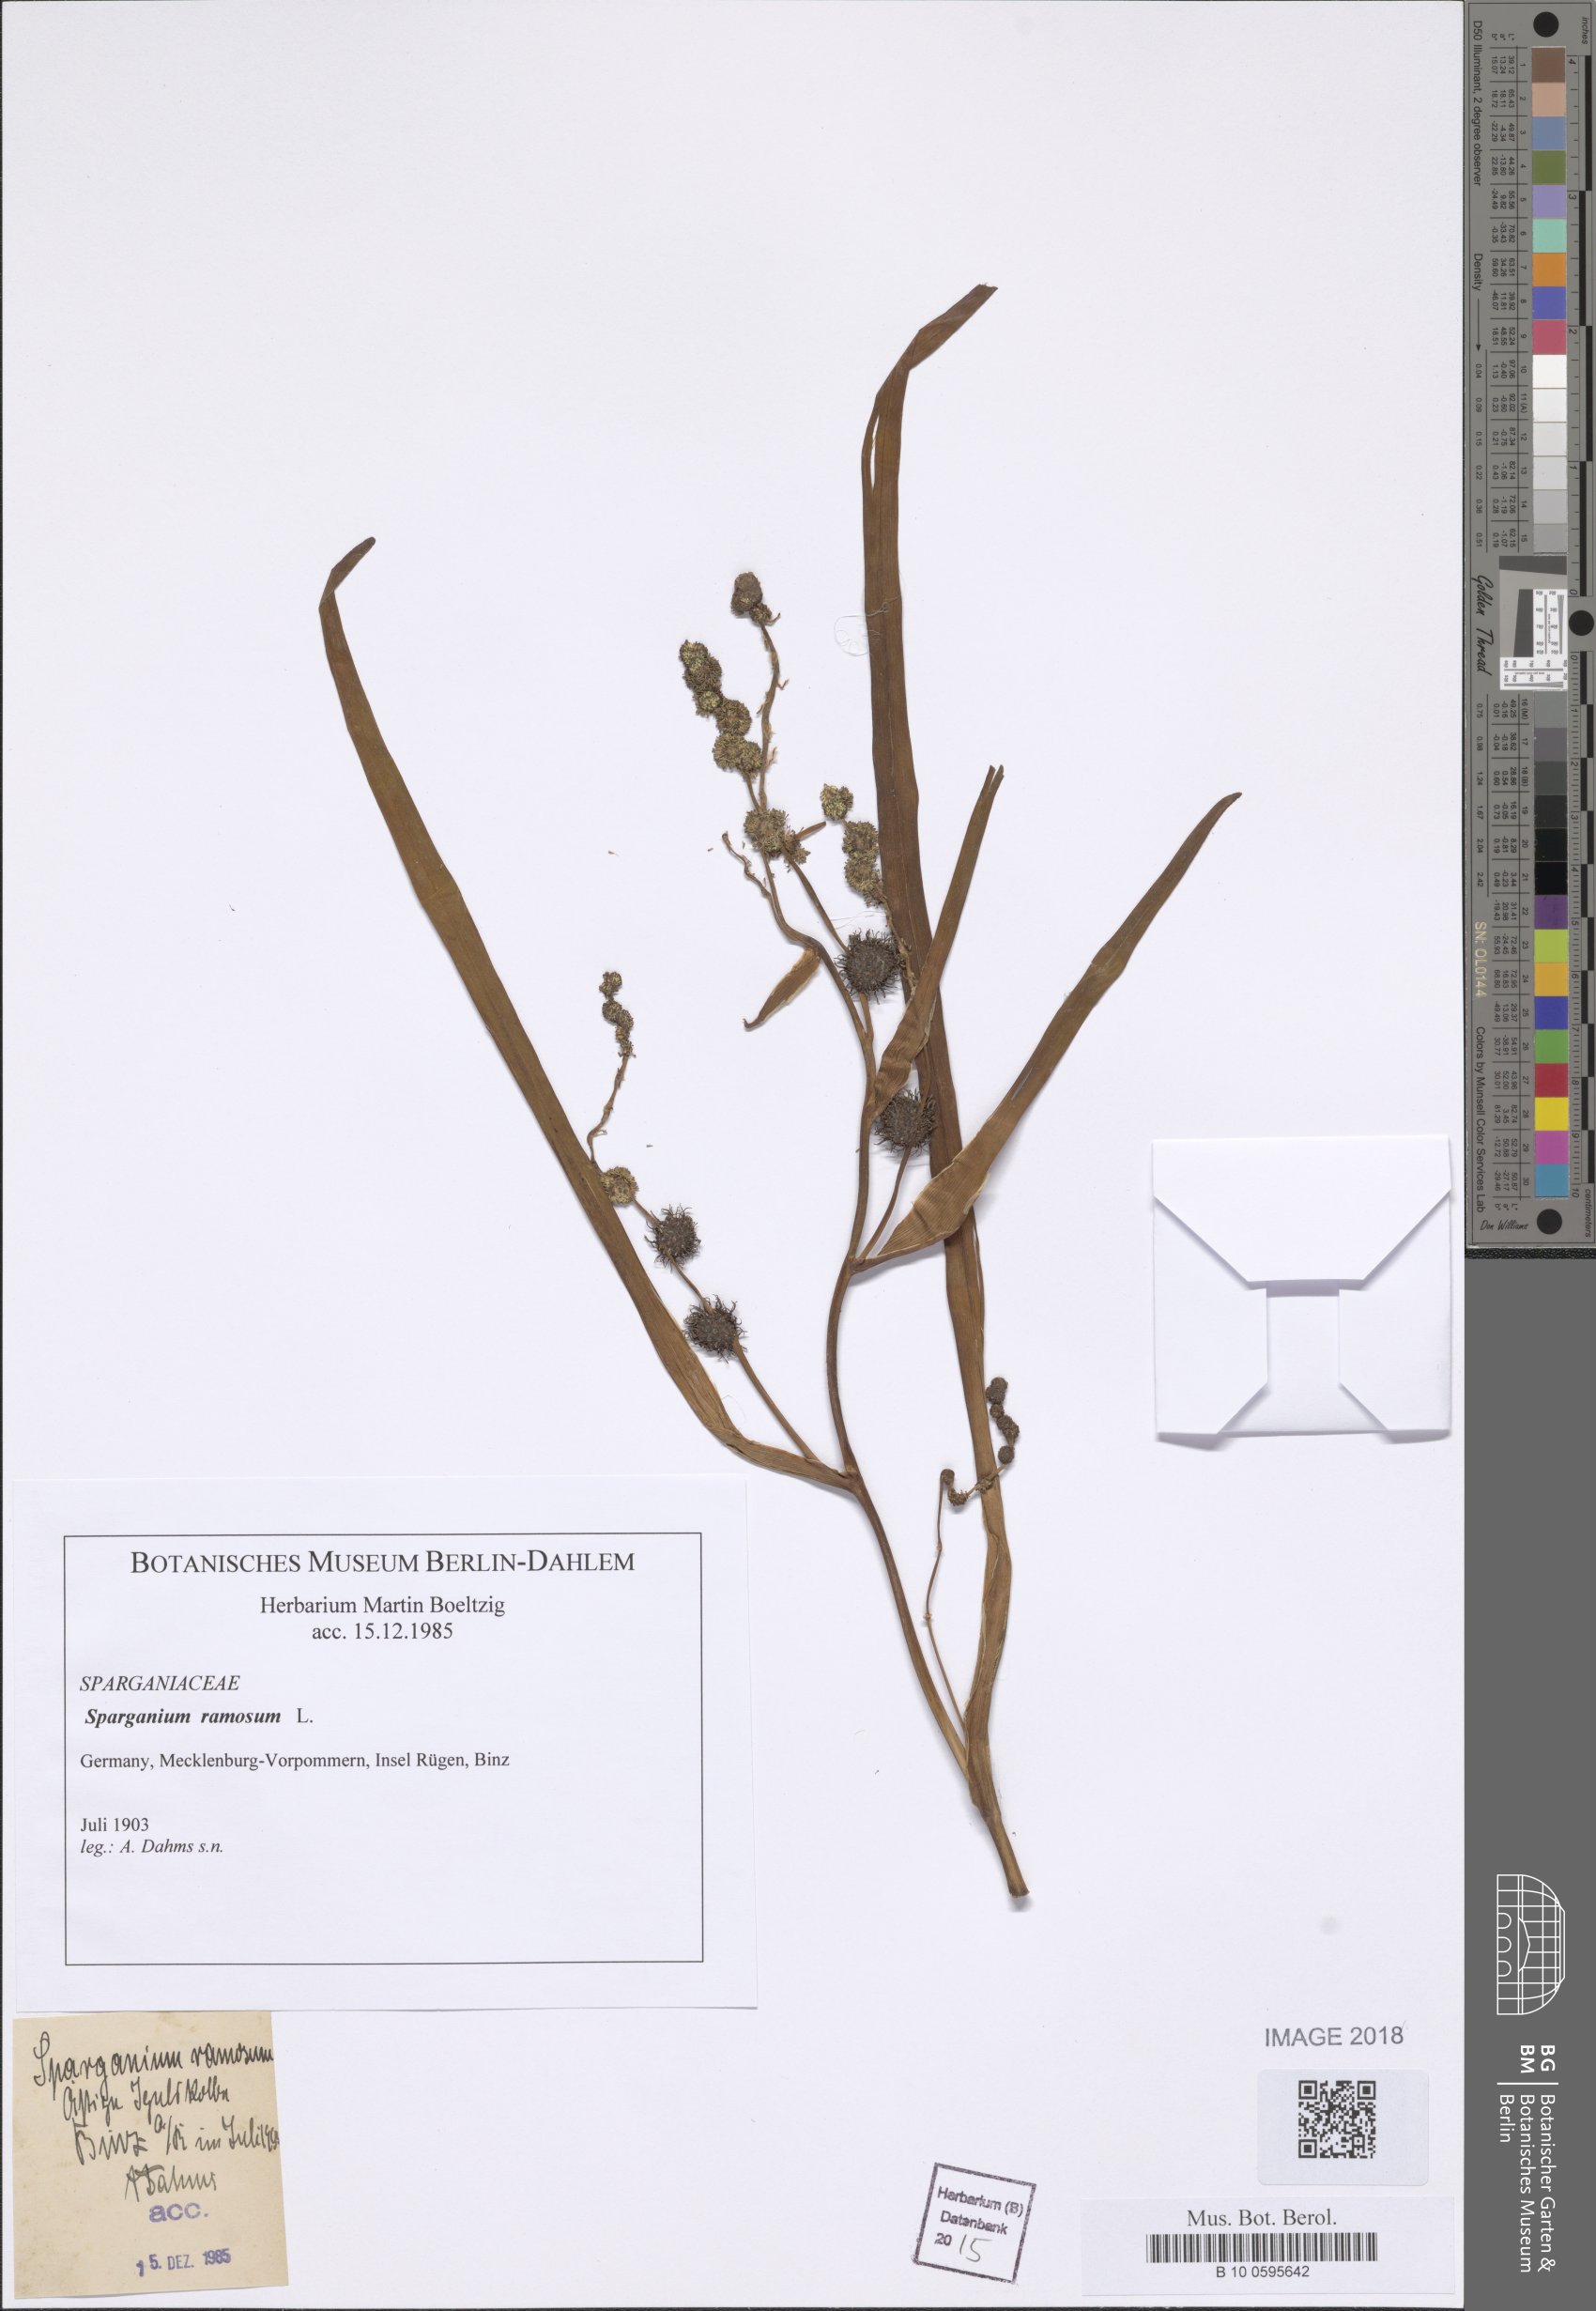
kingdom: Plantae
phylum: Tracheophyta
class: Liliopsida
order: Poales
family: Typhaceae
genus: Sparganium
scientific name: Sparganium erectum
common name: Branched bur-reed
